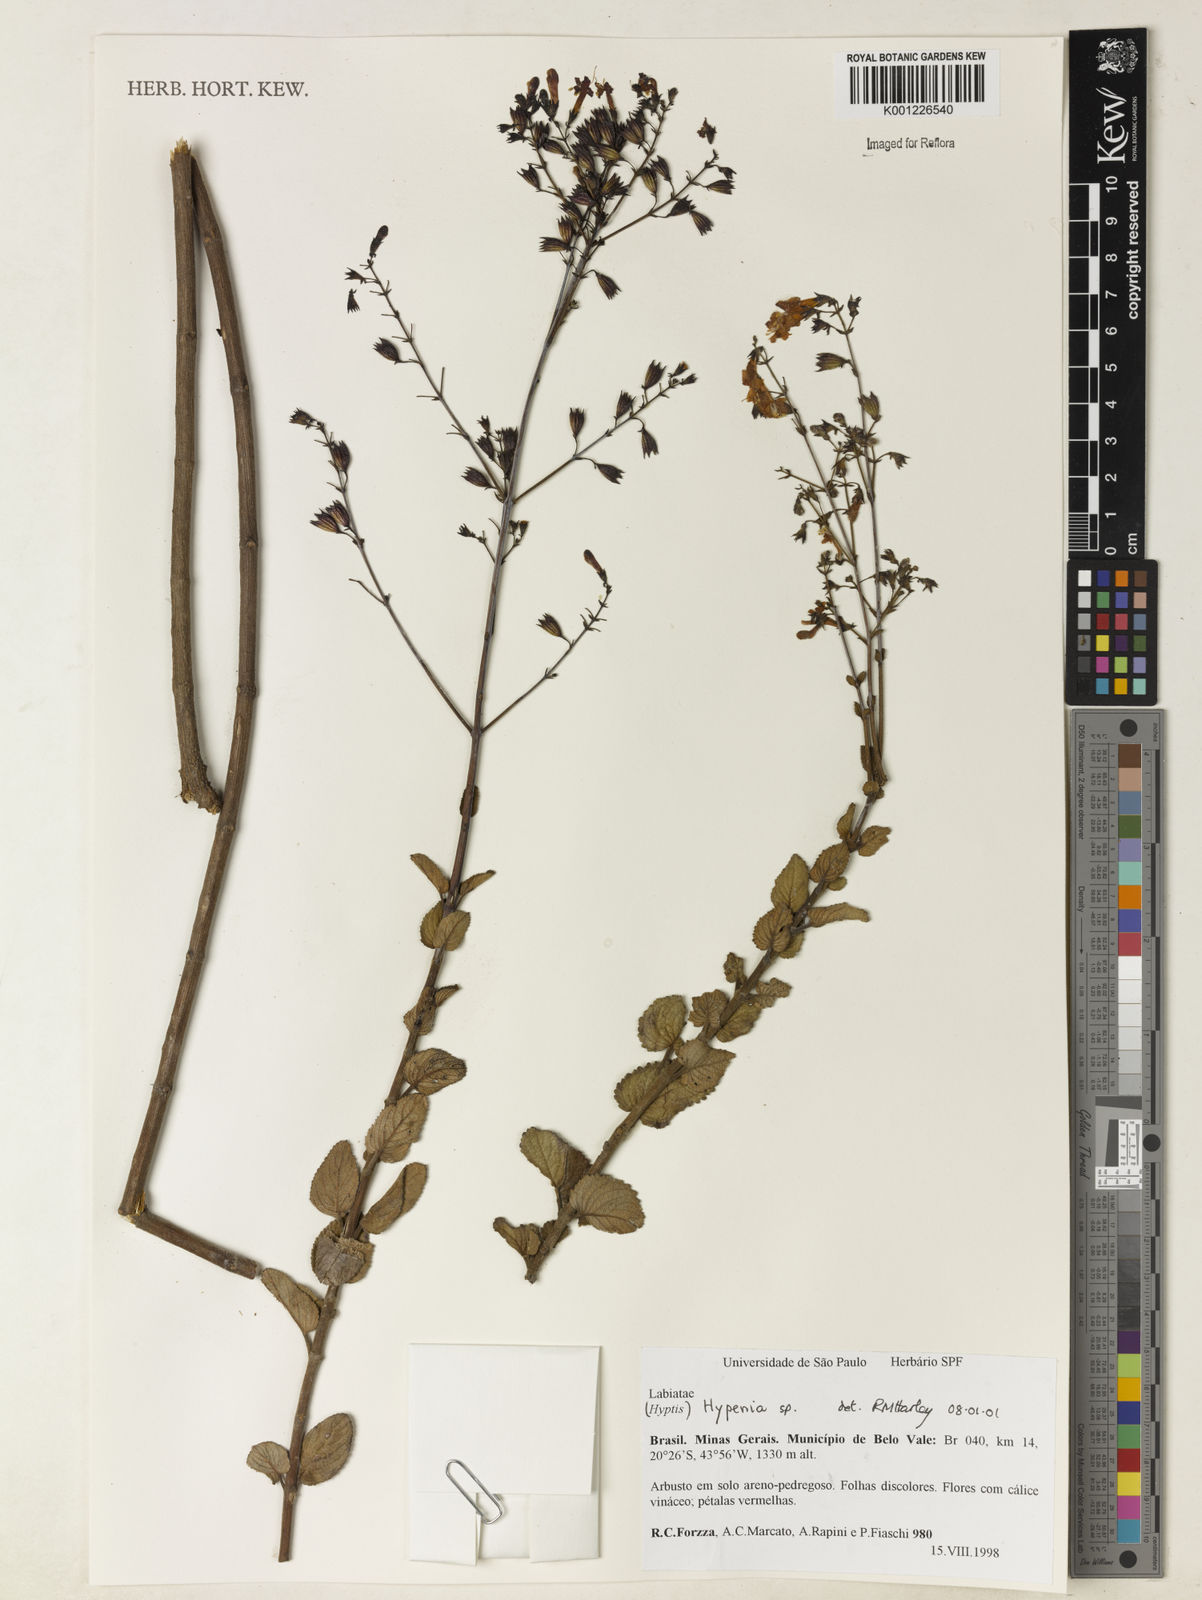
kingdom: Plantae
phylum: Tracheophyta
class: Magnoliopsida
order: Lamiales
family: Lamiaceae
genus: Hypenia
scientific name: Hypenia
